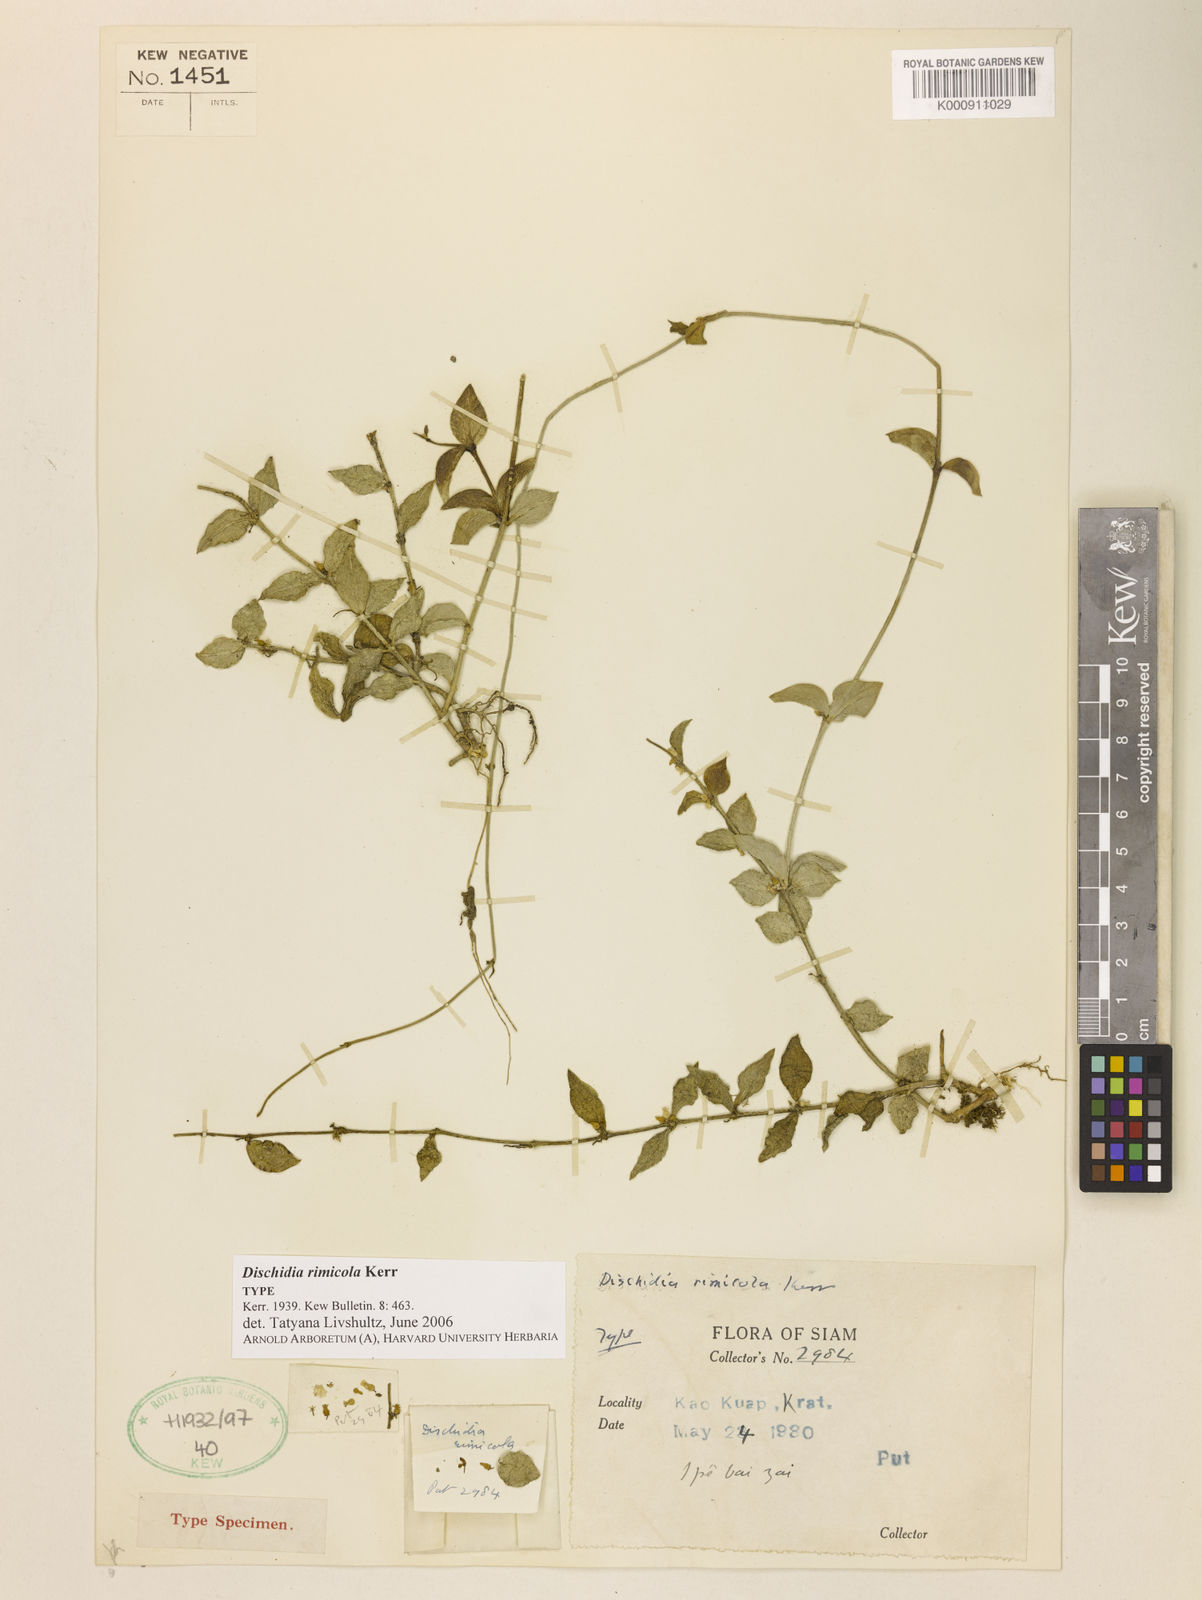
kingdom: Plantae
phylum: Tracheophyta
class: Magnoliopsida
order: Gentianales
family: Apocynaceae
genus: Dischidia
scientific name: Dischidia rimicola
